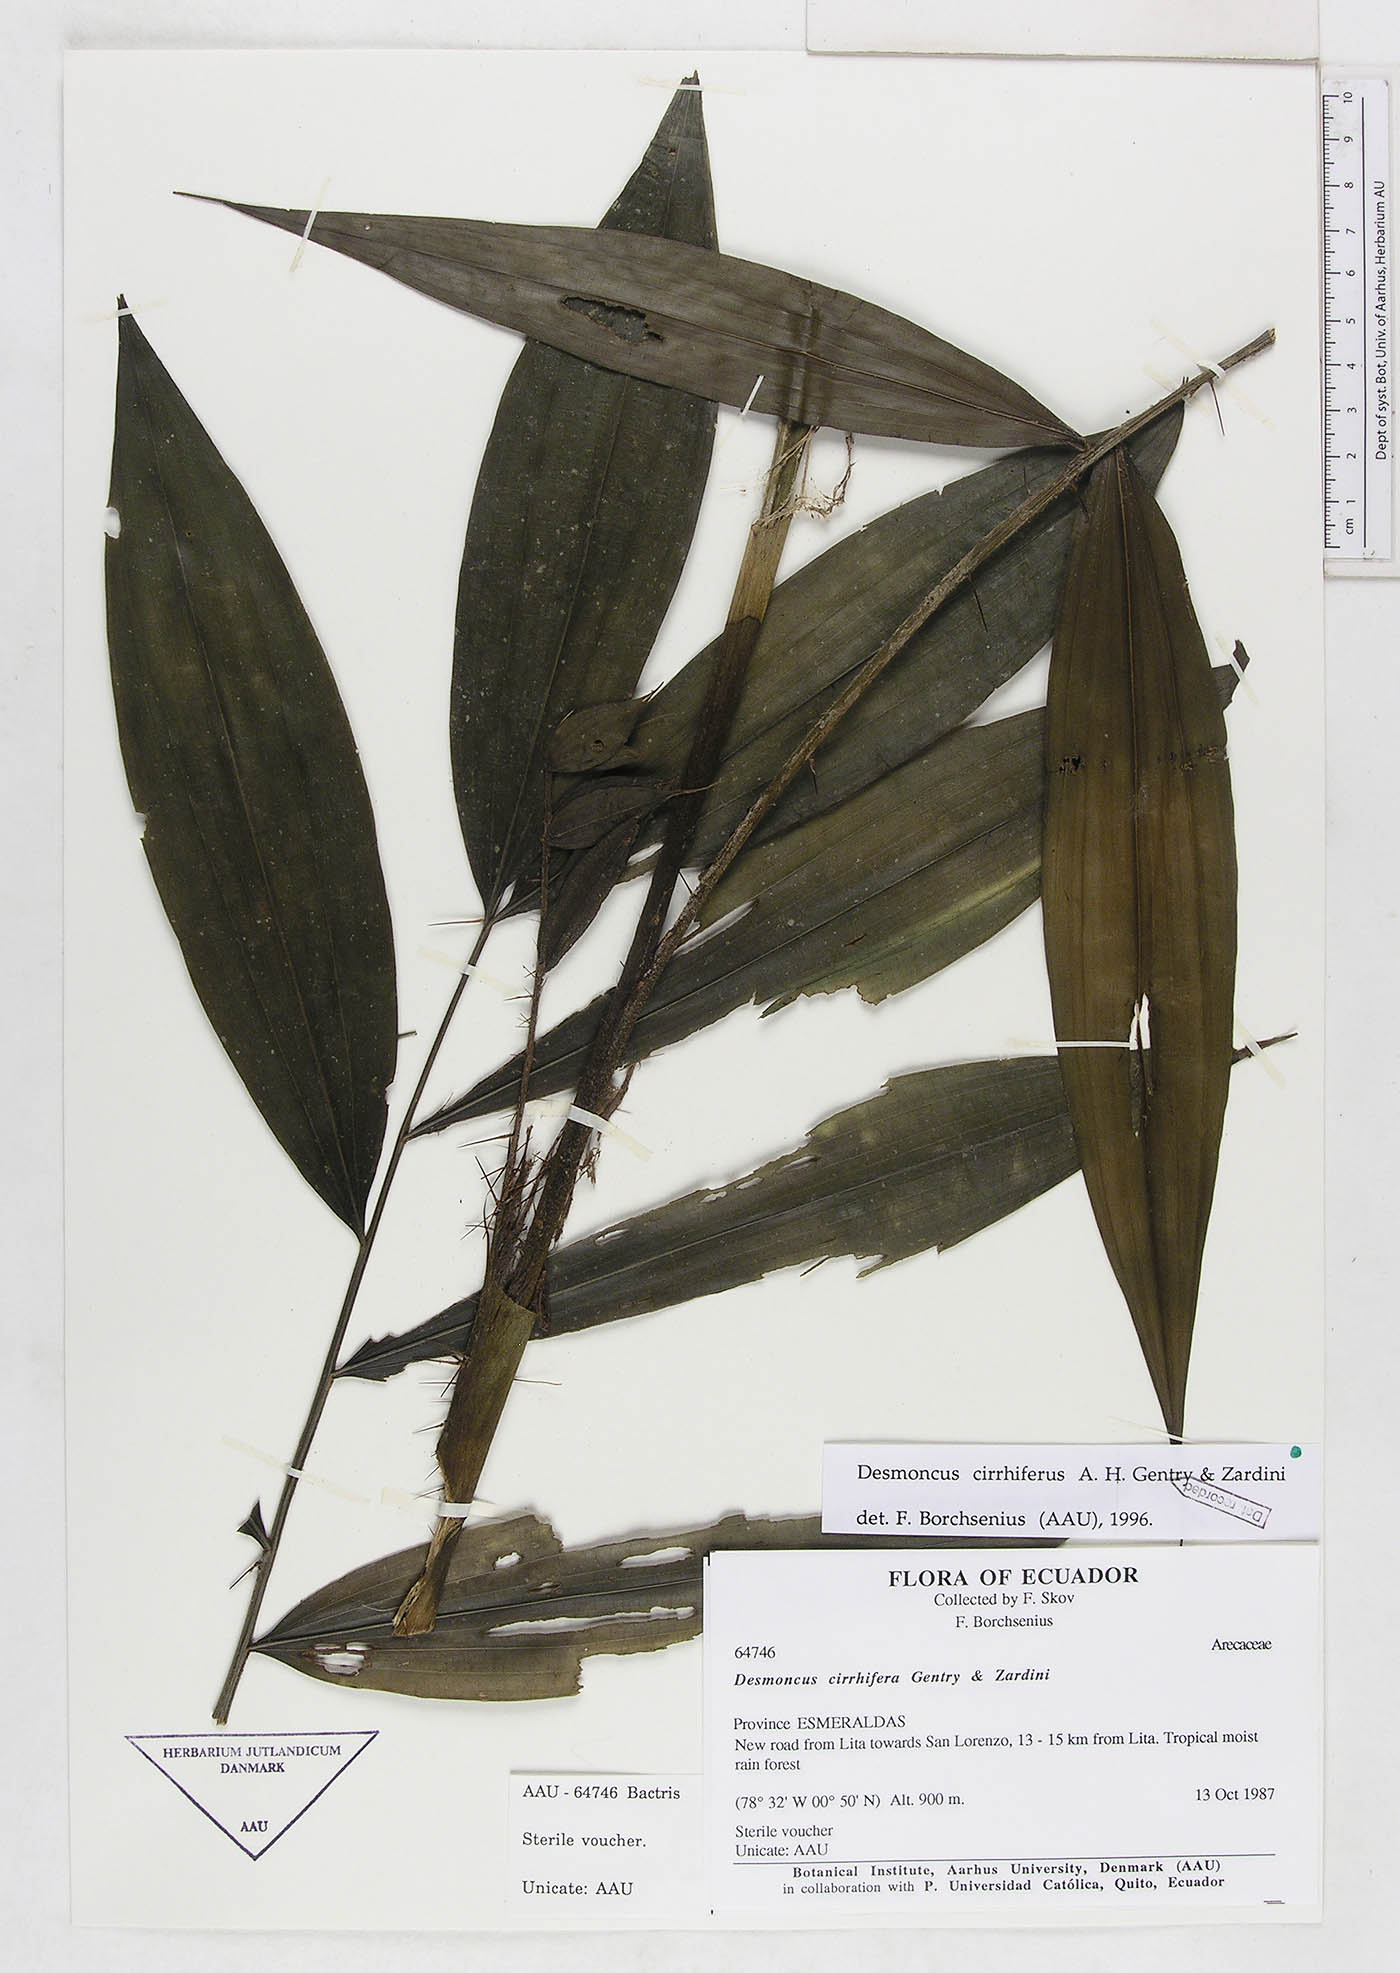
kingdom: Plantae
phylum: Tracheophyta
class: Liliopsida
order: Arecales
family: Arecaceae
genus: Desmoncus
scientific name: Desmoncus cirrhiferus
